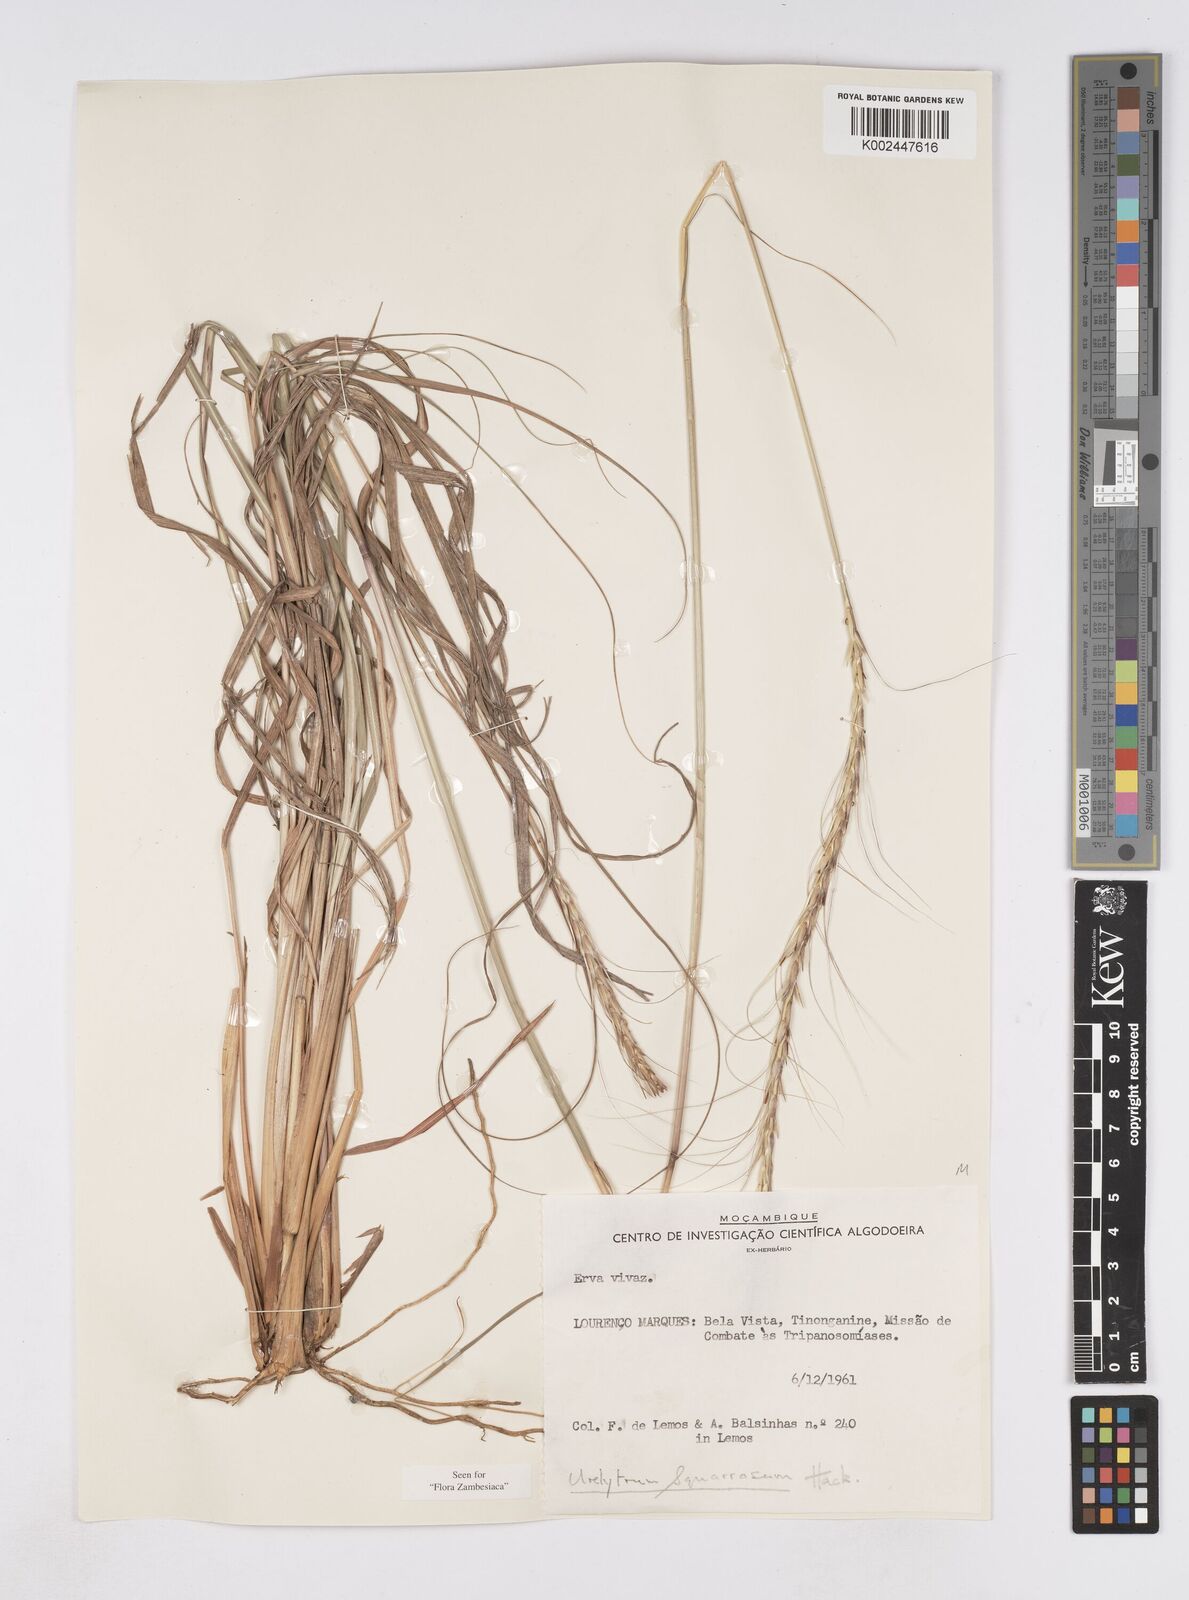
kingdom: Plantae
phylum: Tracheophyta
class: Liliopsida
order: Poales
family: Poaceae
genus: Urelytrum
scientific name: Urelytrum agropyroides
